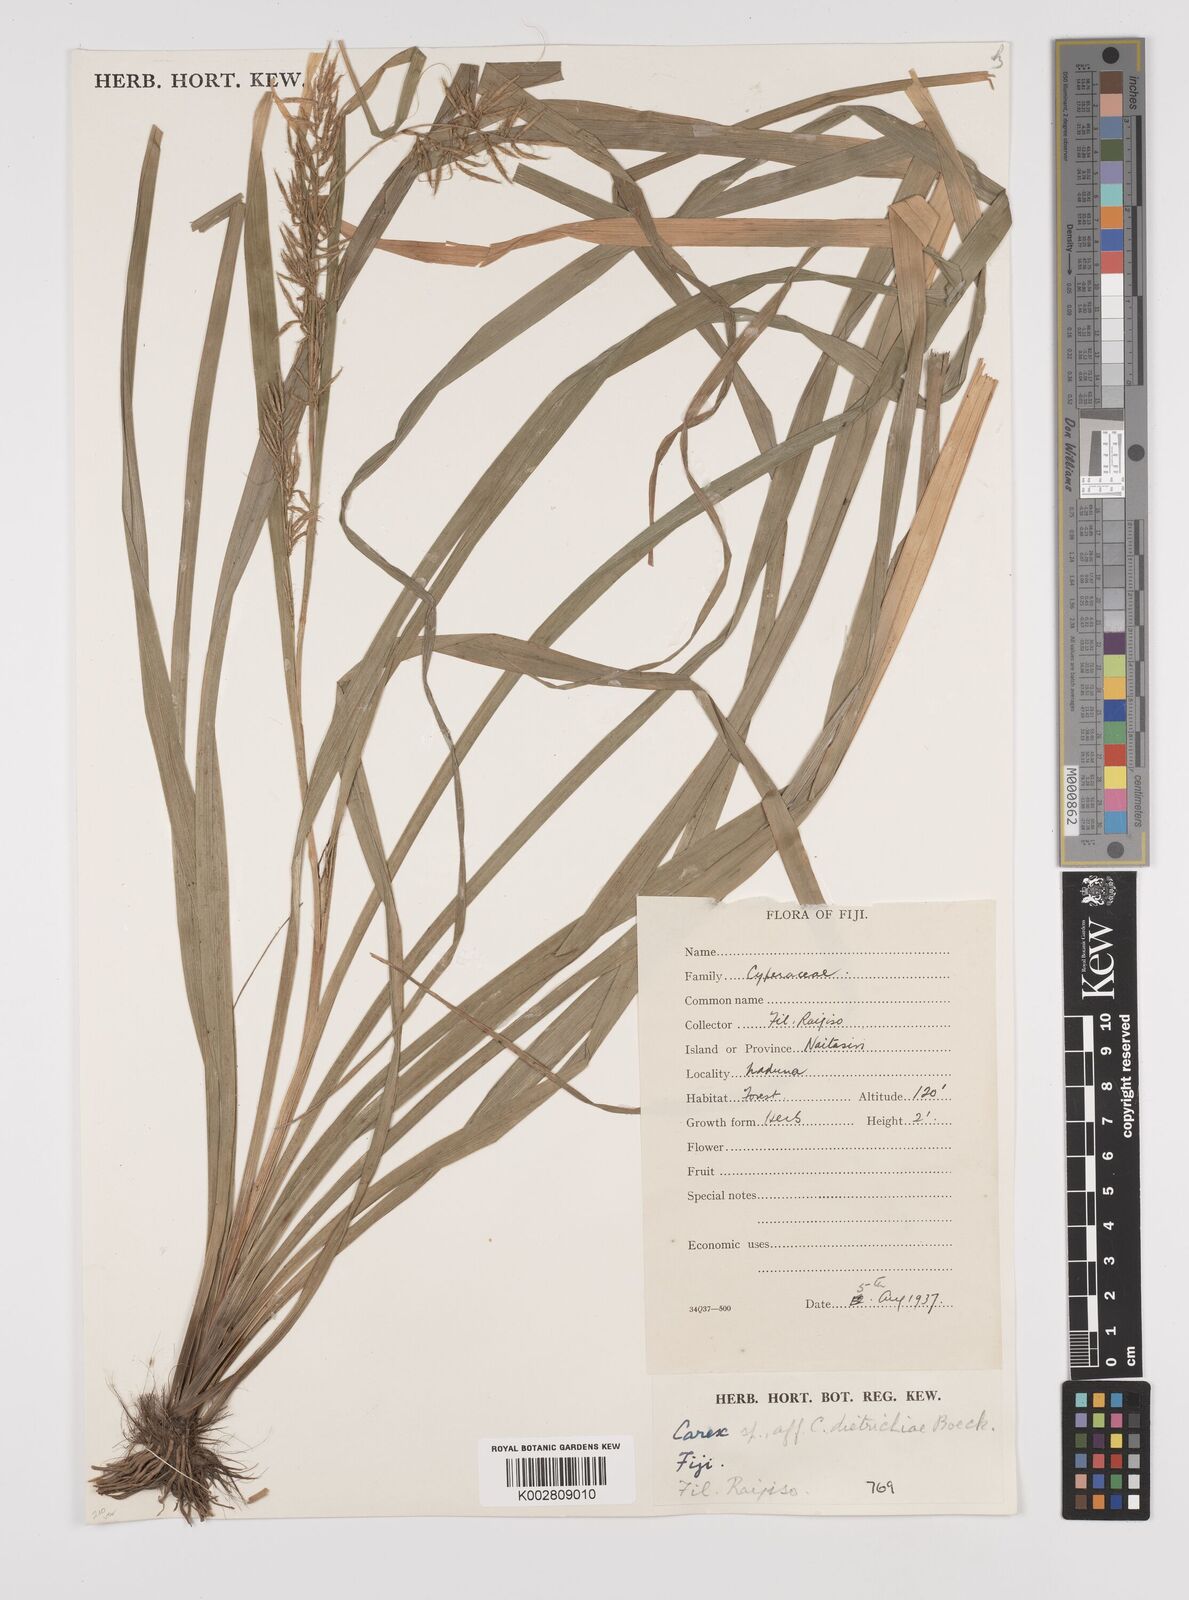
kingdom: Plantae
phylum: Tracheophyta
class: Liliopsida
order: Poales
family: Cyperaceae
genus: Carex
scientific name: Carex indica
